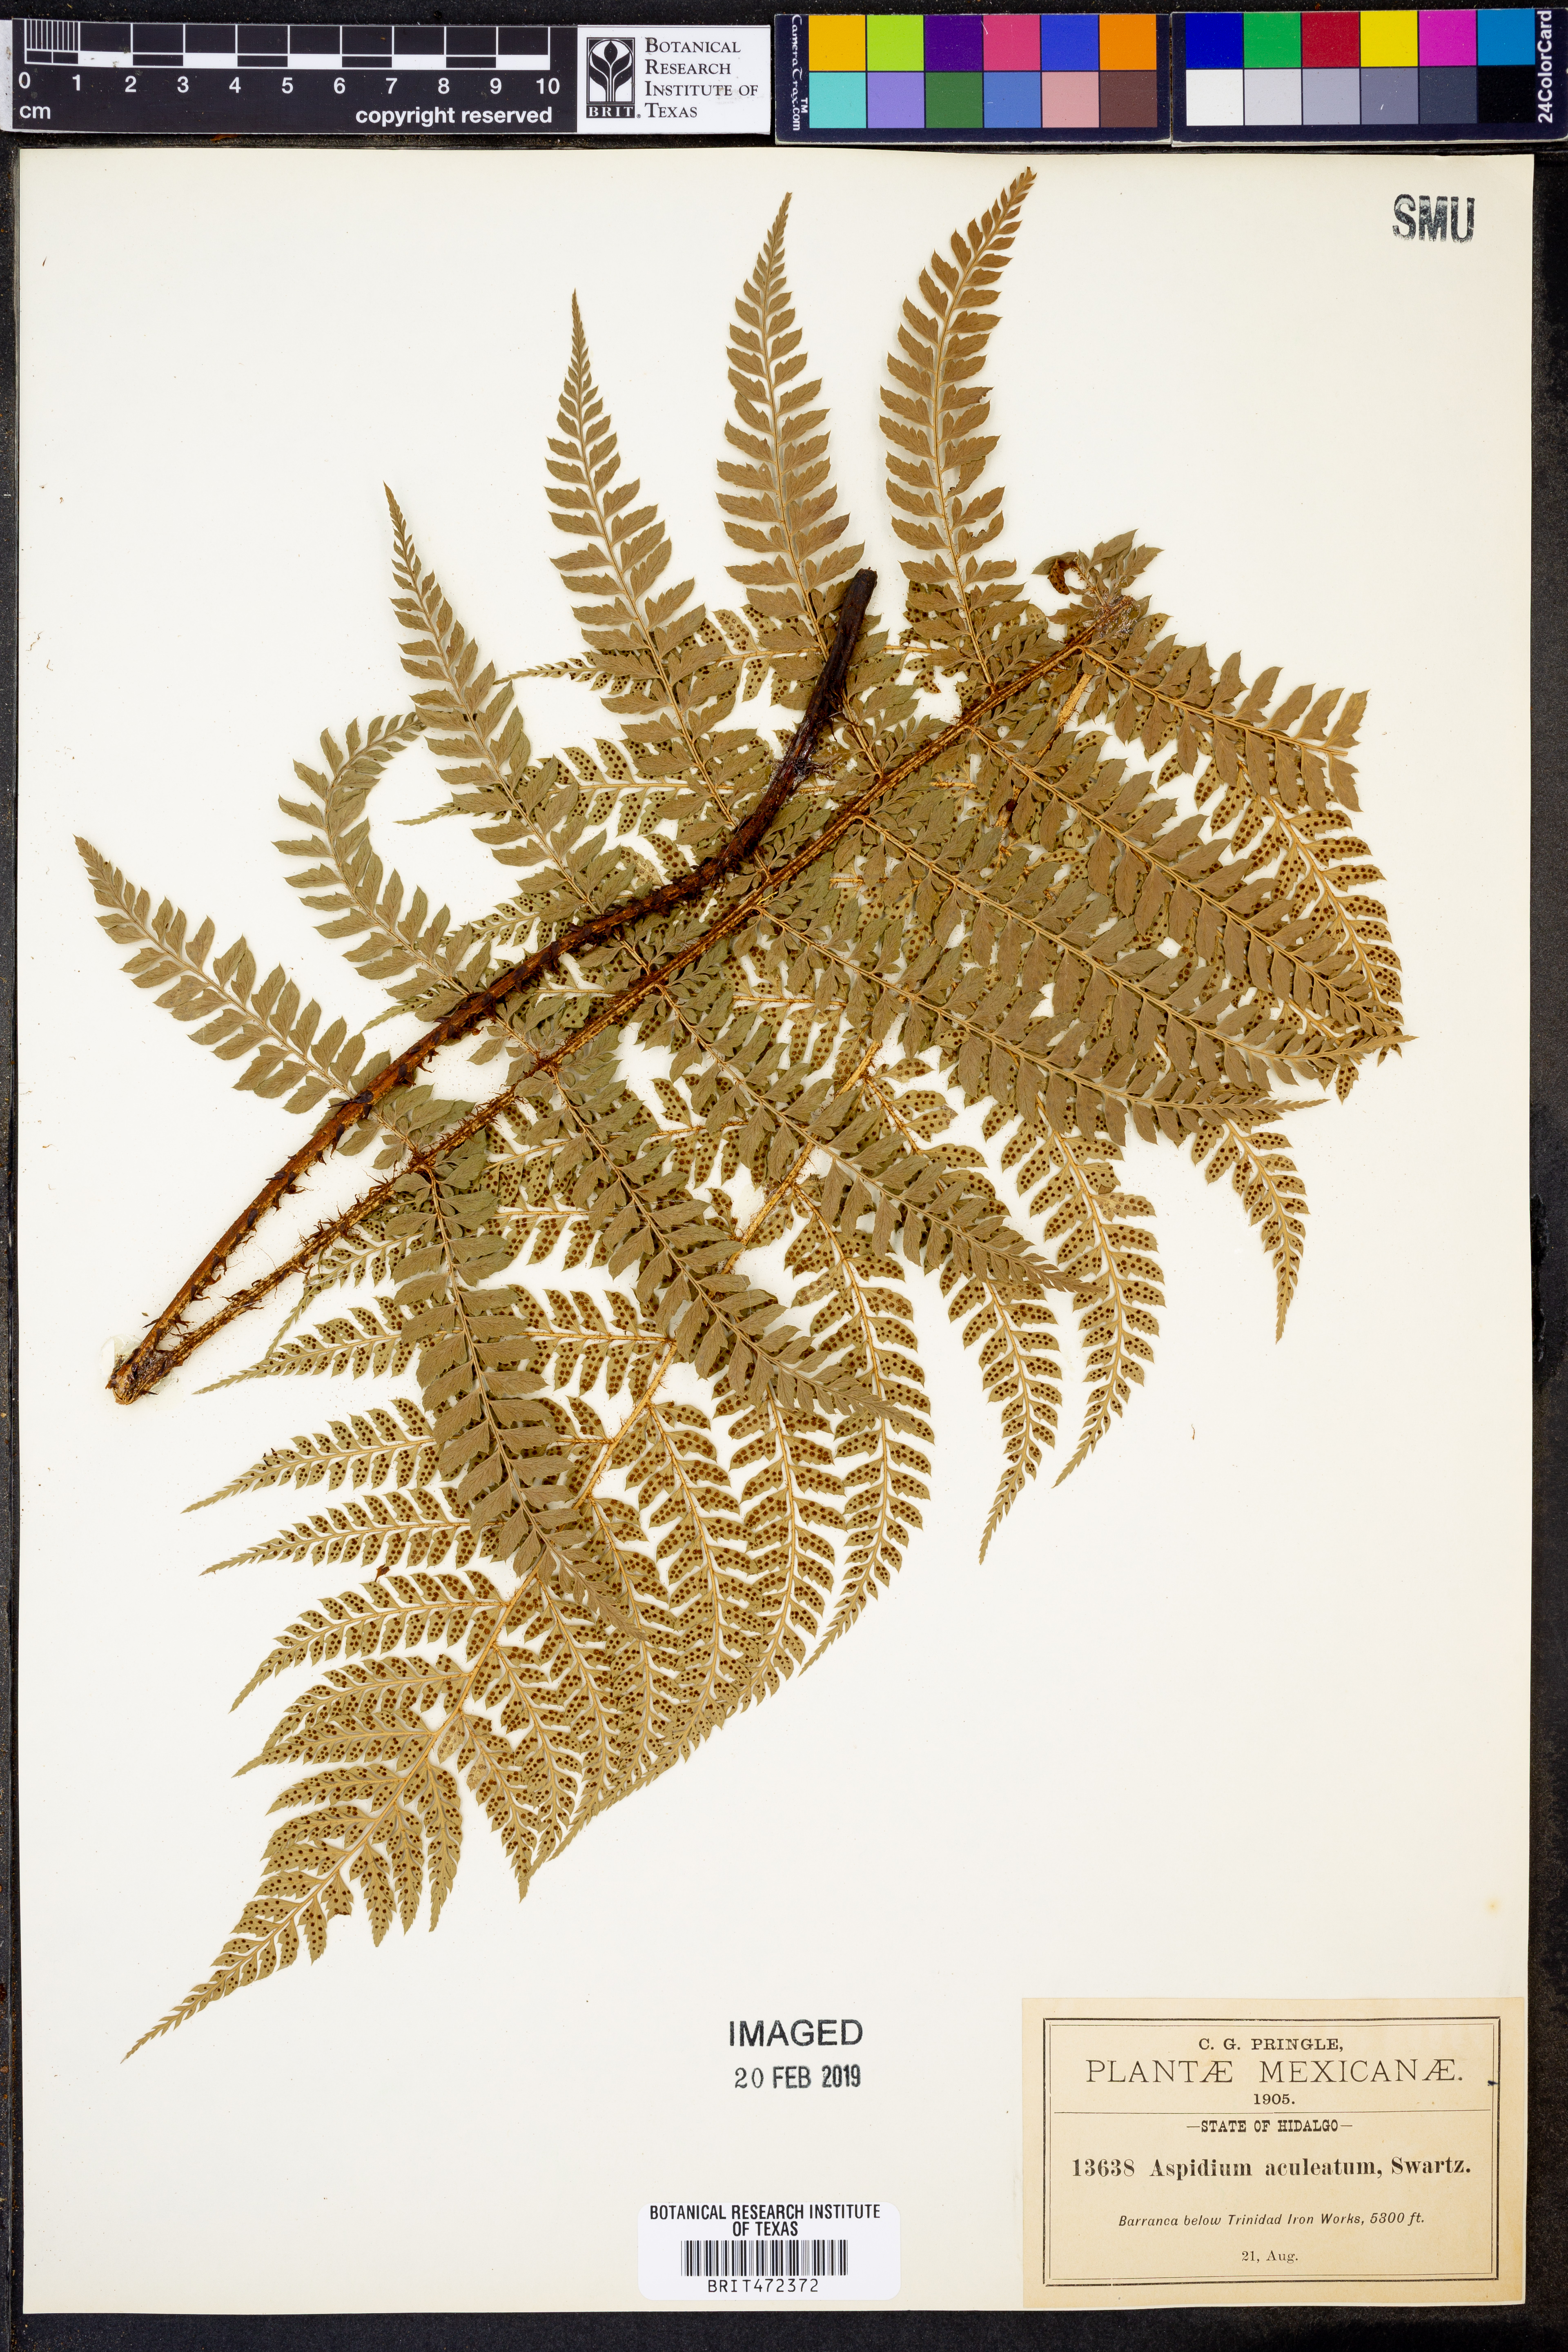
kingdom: Plantae
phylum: Tracheophyta
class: Polypodiopsida
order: Polypodiales
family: Dryopteridaceae
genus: Polystichum
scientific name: Polystichum aculeatum
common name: Hard shield-fern
